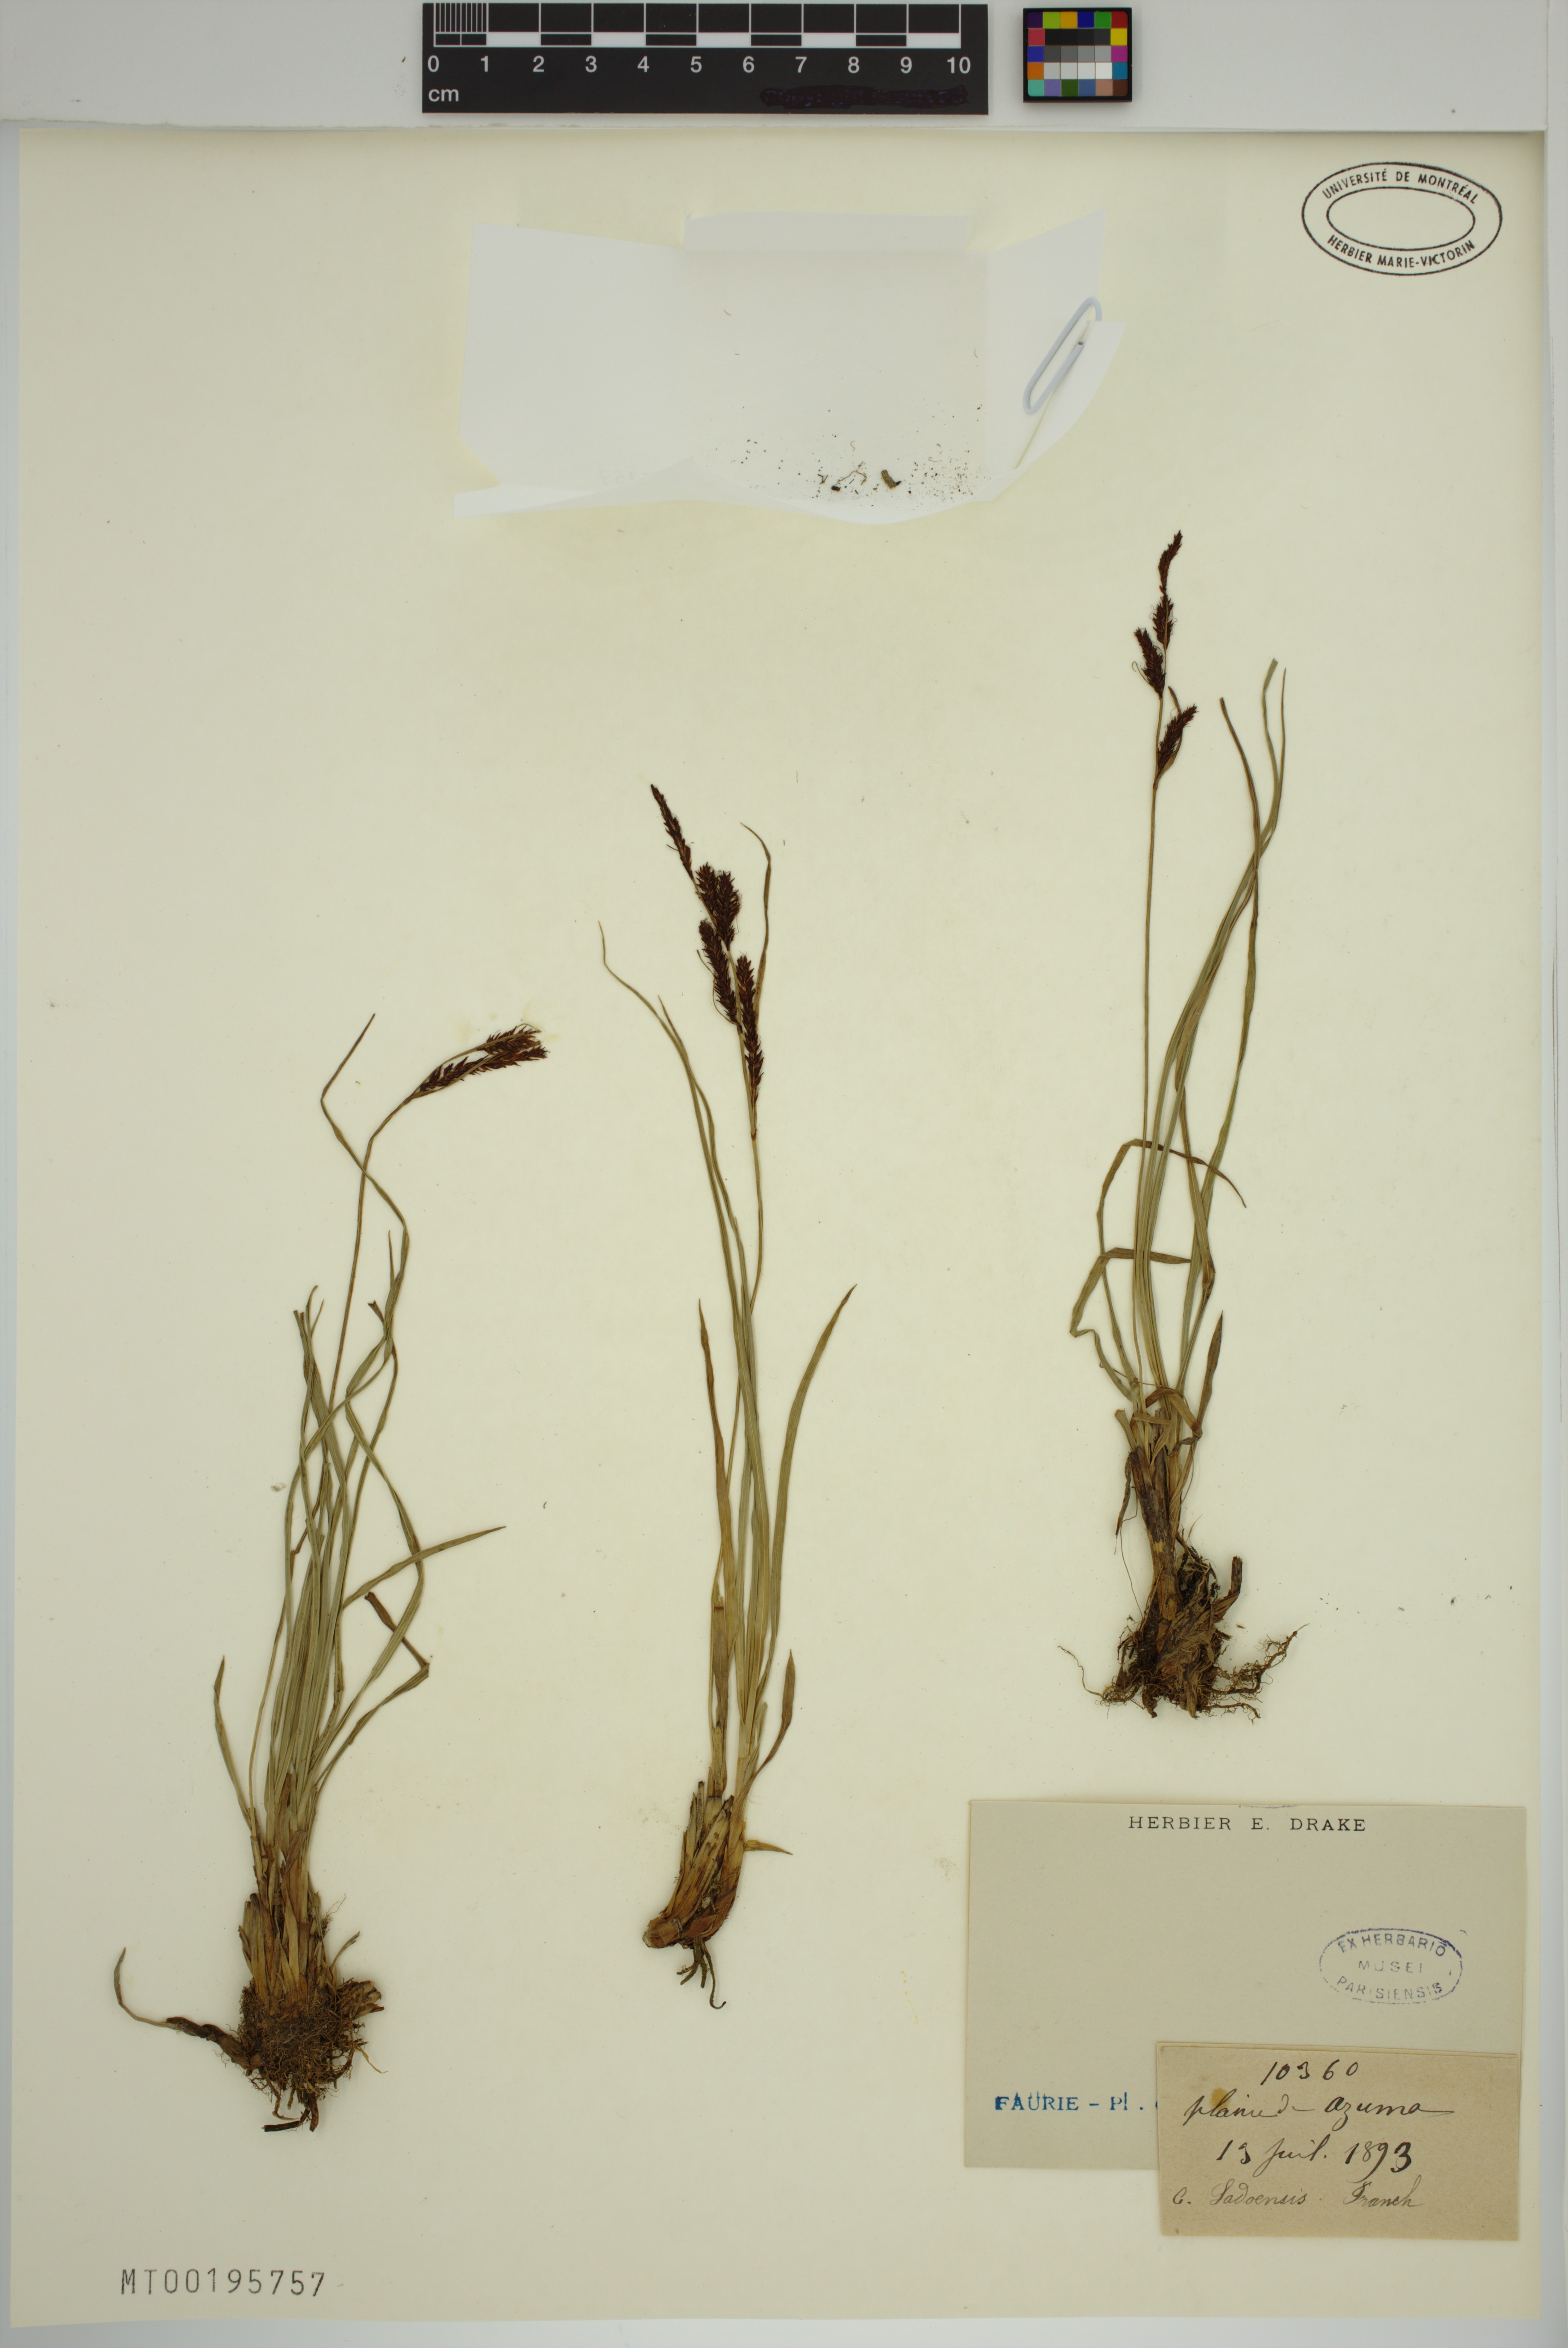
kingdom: Plantae
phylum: Tracheophyta
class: Liliopsida
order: Poales
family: Cyperaceae
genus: Carex
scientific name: Carex sadoensis
